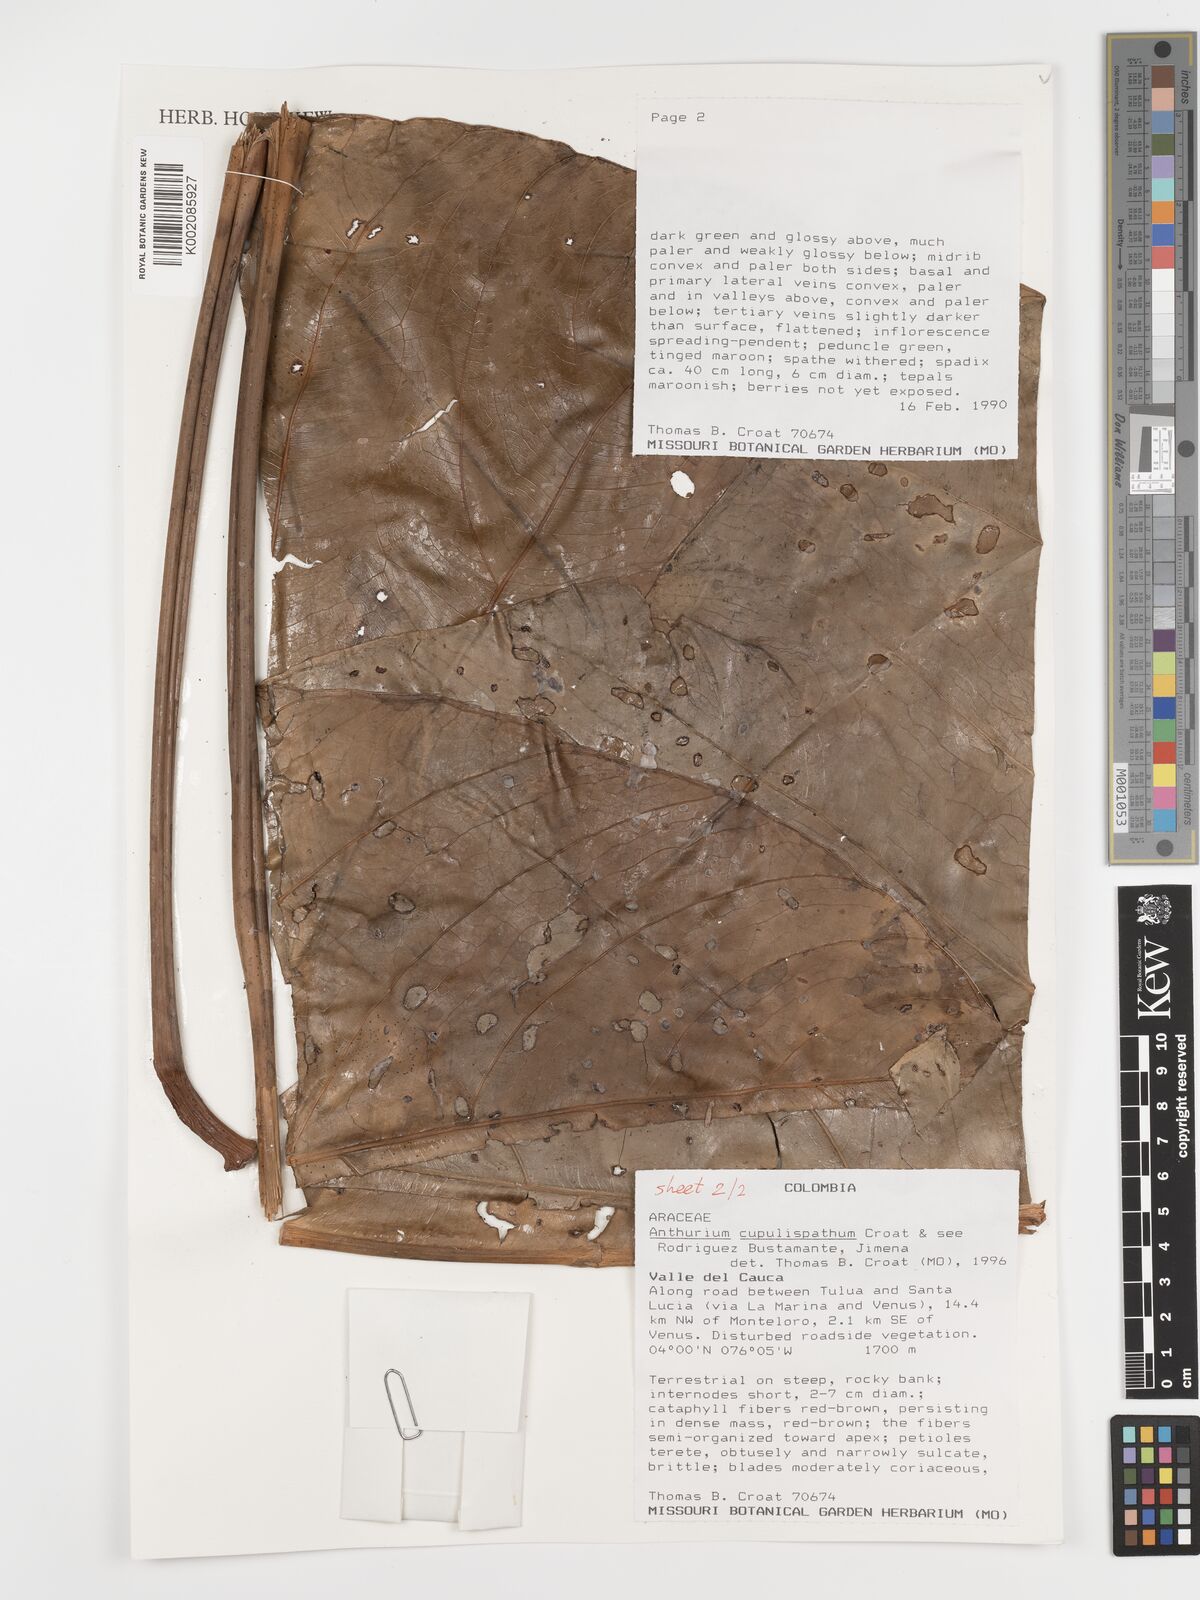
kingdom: Plantae
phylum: Tracheophyta
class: Liliopsida
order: Alismatales
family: Araceae
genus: Anthurium
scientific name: Anthurium cupulispathum
